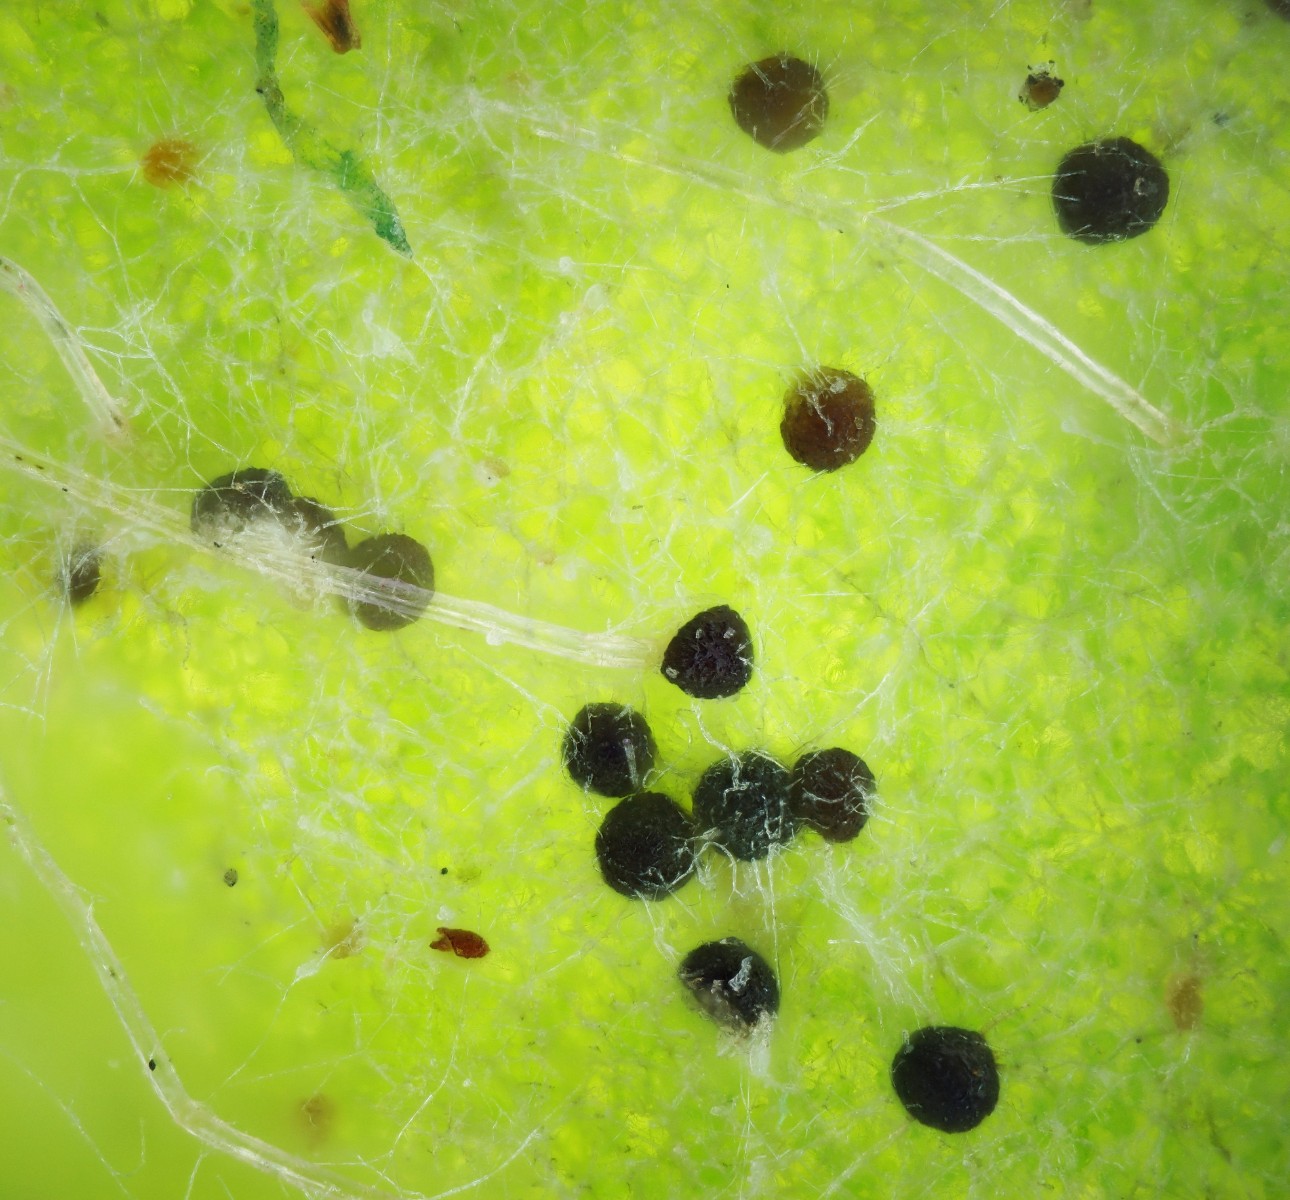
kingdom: Fungi
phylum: Ascomycota
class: Leotiomycetes
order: Helotiales
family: Erysiphaceae
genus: Erysiphe
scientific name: Erysiphe intermedia
